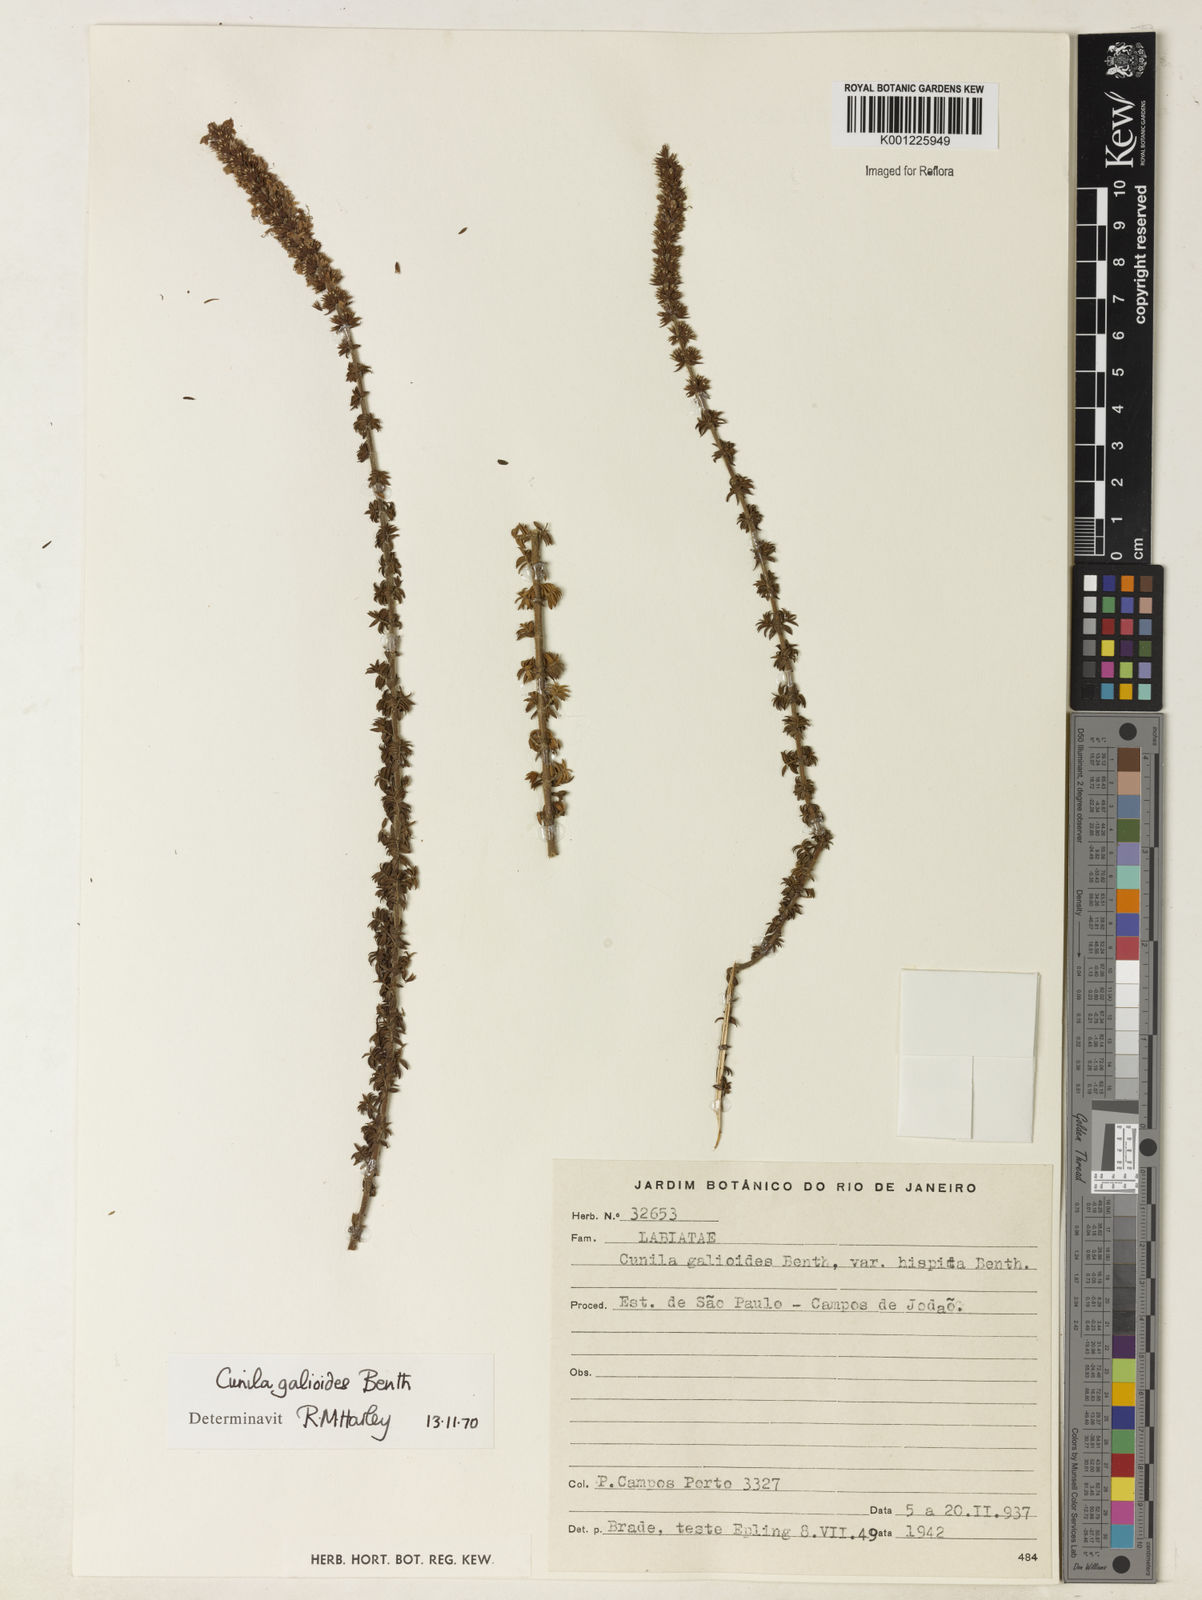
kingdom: Plantae
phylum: Tracheophyta
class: Magnoliopsida
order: Lamiales
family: Lamiaceae
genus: Cunila
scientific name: Cunila galioides
